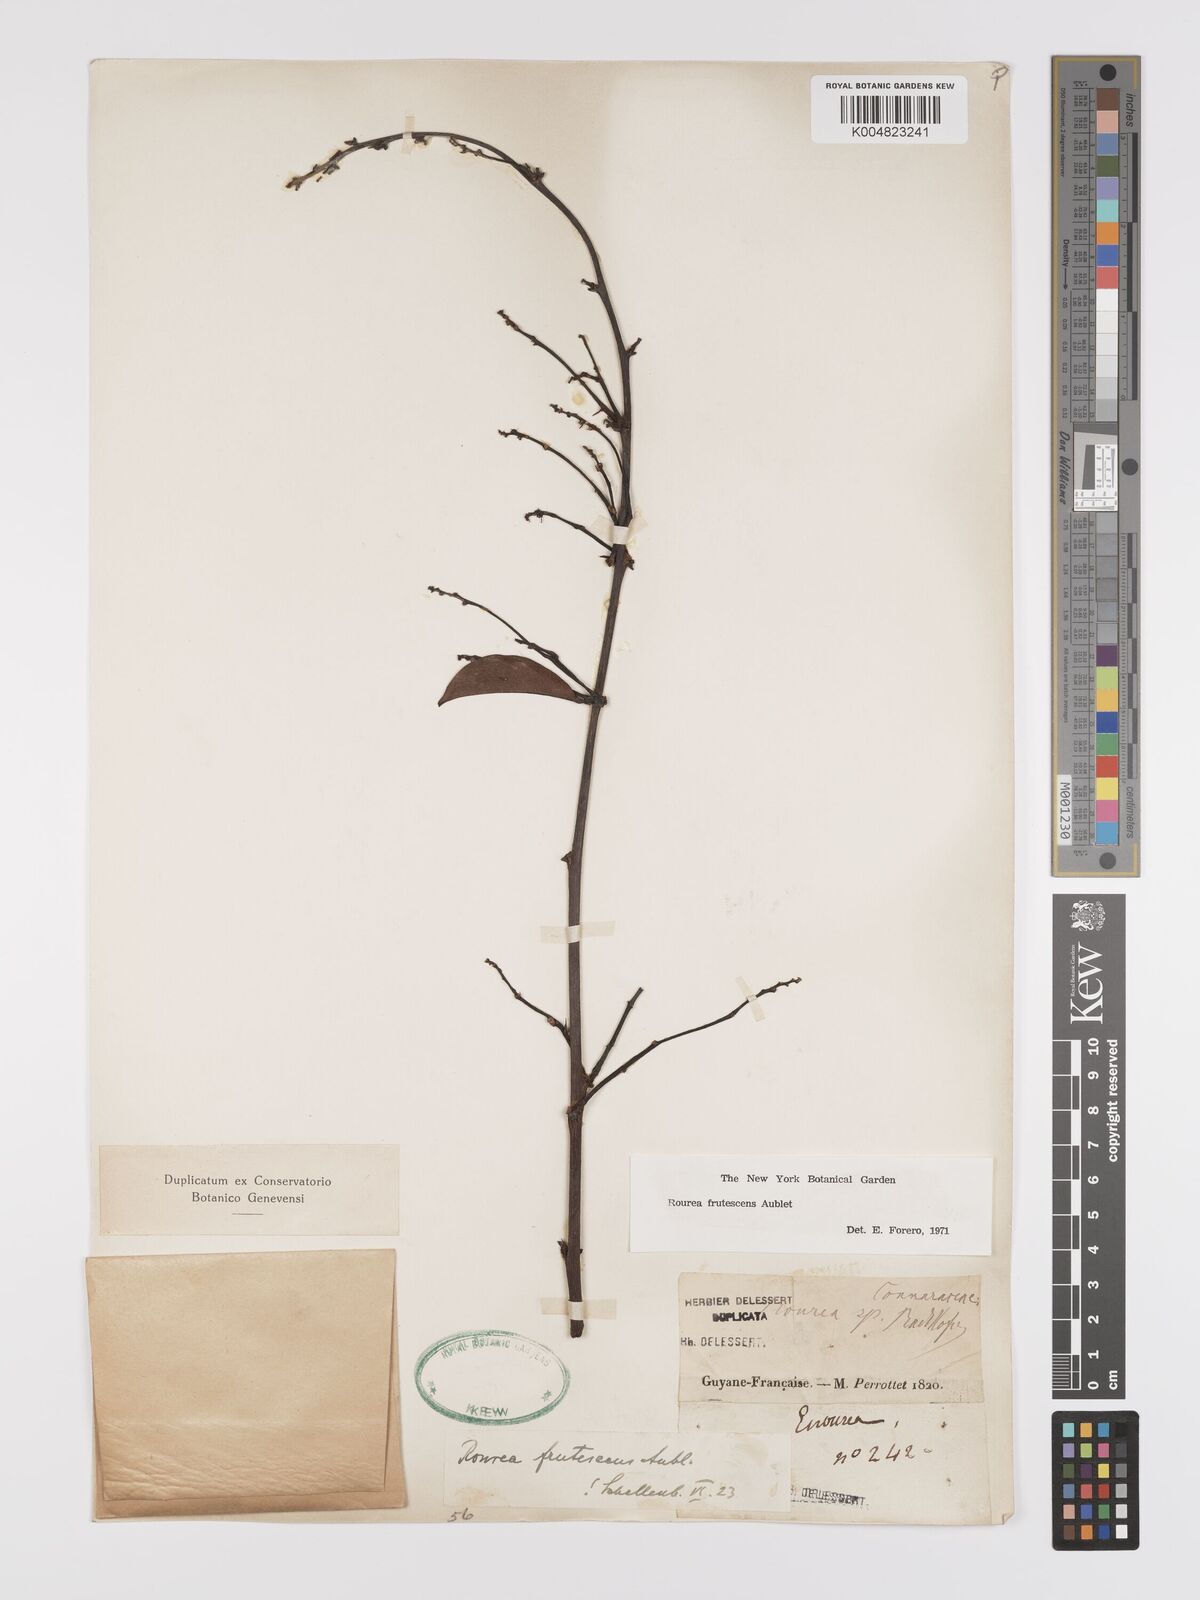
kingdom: Plantae
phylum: Tracheophyta
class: Magnoliopsida
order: Oxalidales
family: Connaraceae
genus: Rourea
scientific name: Rourea frutescens
